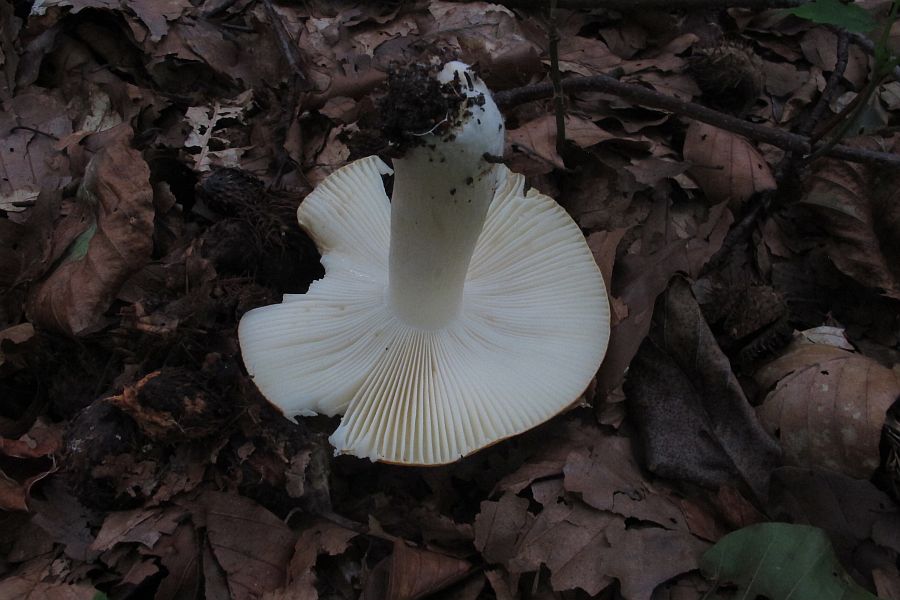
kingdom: Fungi
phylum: Basidiomycota
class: Agaricomycetes
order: Russulales
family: Russulaceae
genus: Russula
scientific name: Russula ochroleuca
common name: okkergul skørhat
